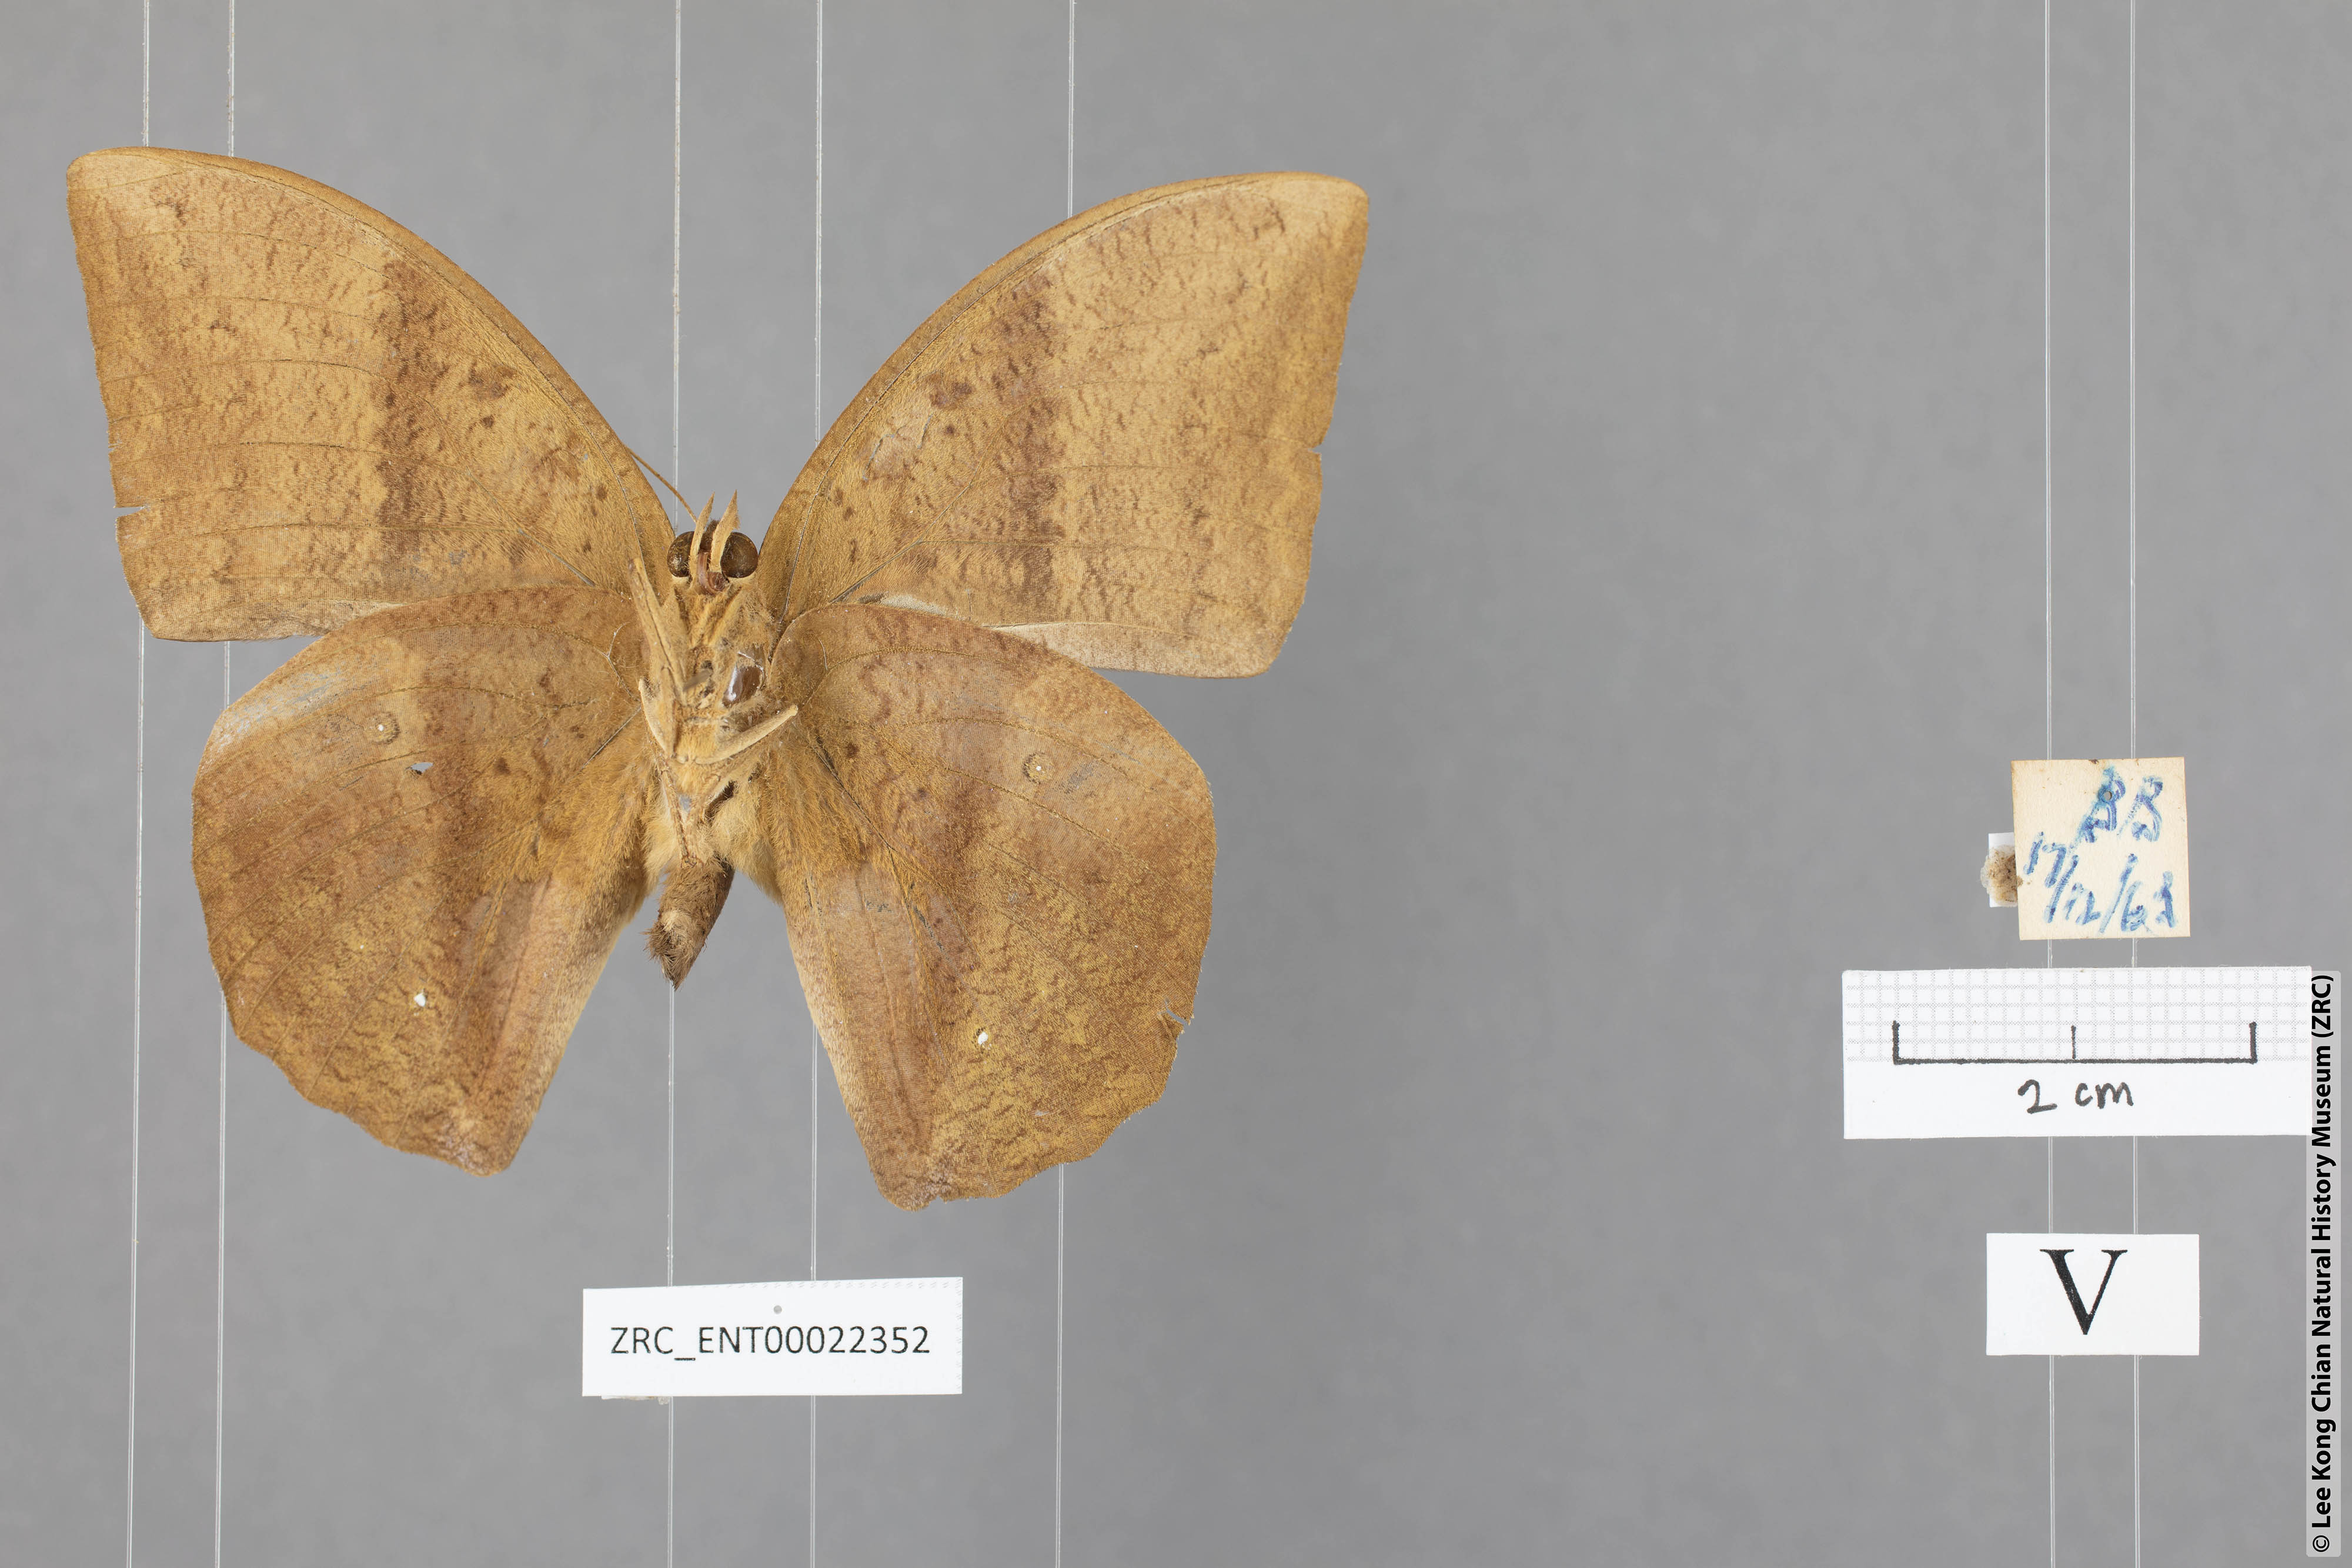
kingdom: Animalia
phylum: Arthropoda
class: Insecta
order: Lepidoptera
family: Nymphalidae
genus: Discophora
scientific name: Discophora sondaica
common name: Common duffer
